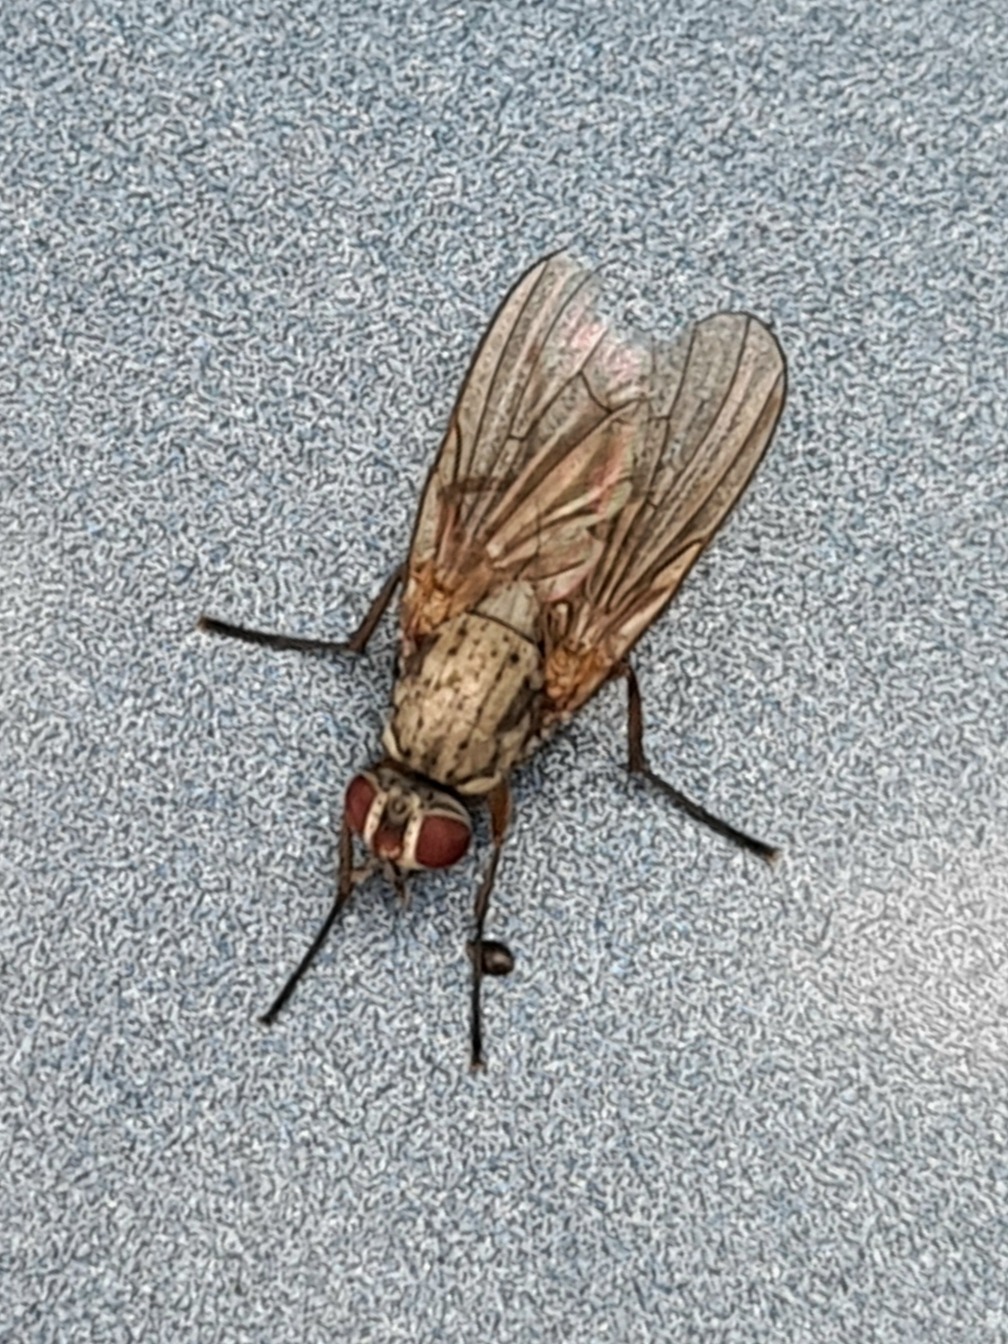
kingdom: Animalia
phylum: Arthropoda
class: Insecta
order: Diptera
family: Anthomyiidae
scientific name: Anthomyiidae
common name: Blomsterfluer
